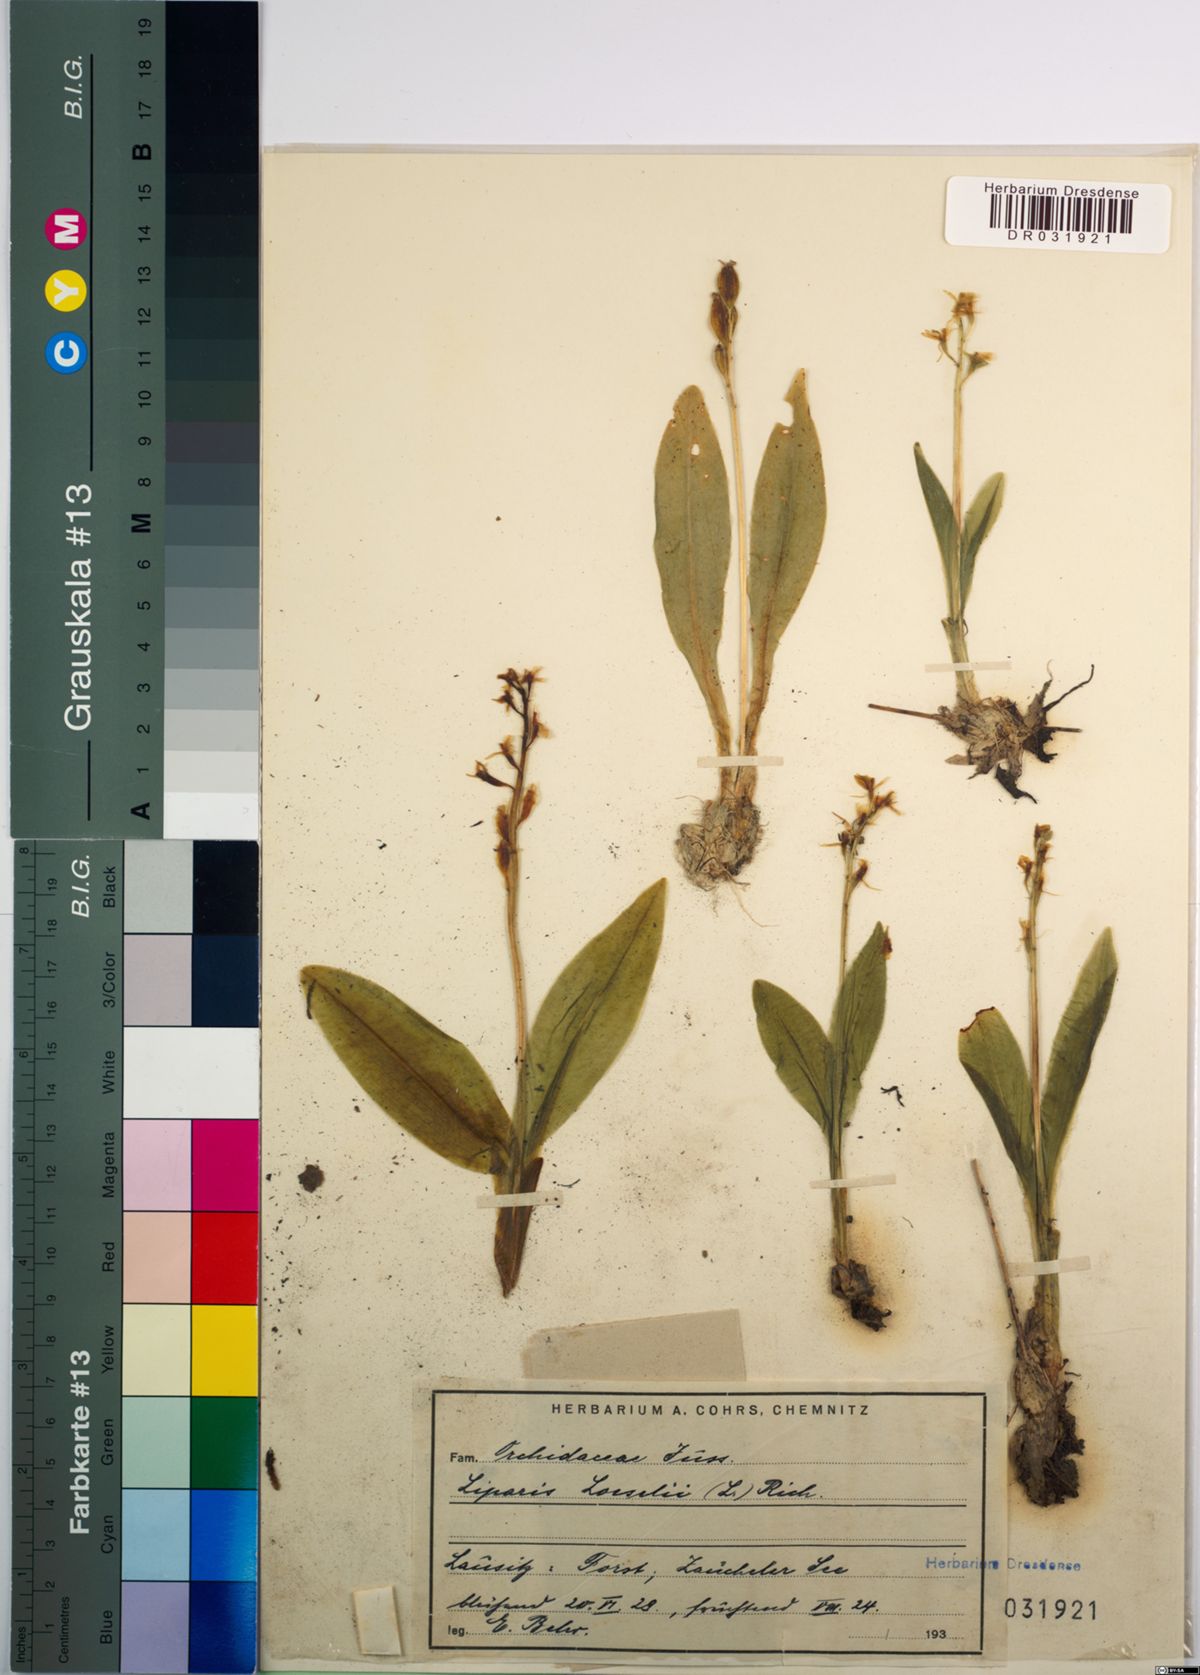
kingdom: Animalia
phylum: Arthropoda
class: Insecta
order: Coleoptera
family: Curculionidae
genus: Liparis
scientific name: Liparis loeselii
